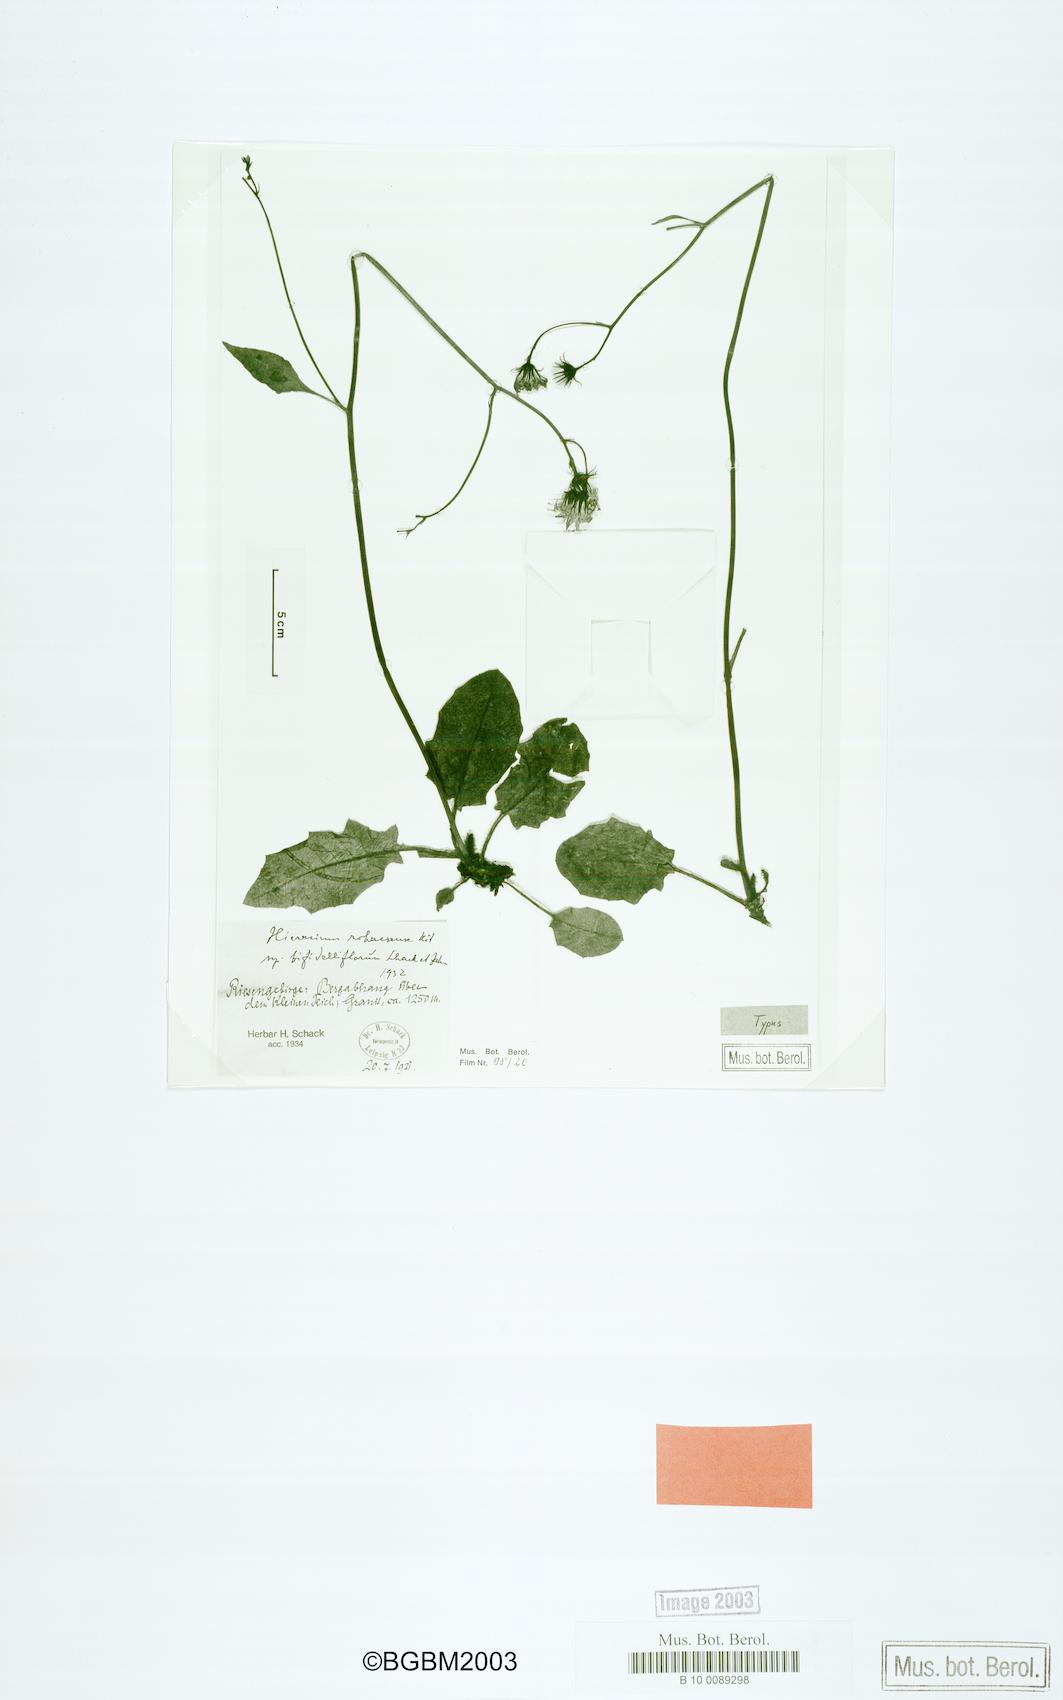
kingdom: Plantae
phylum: Tracheophyta
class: Magnoliopsida
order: Asterales
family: Asteraceae
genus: Hieracium
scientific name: Hieracium rohacsense
